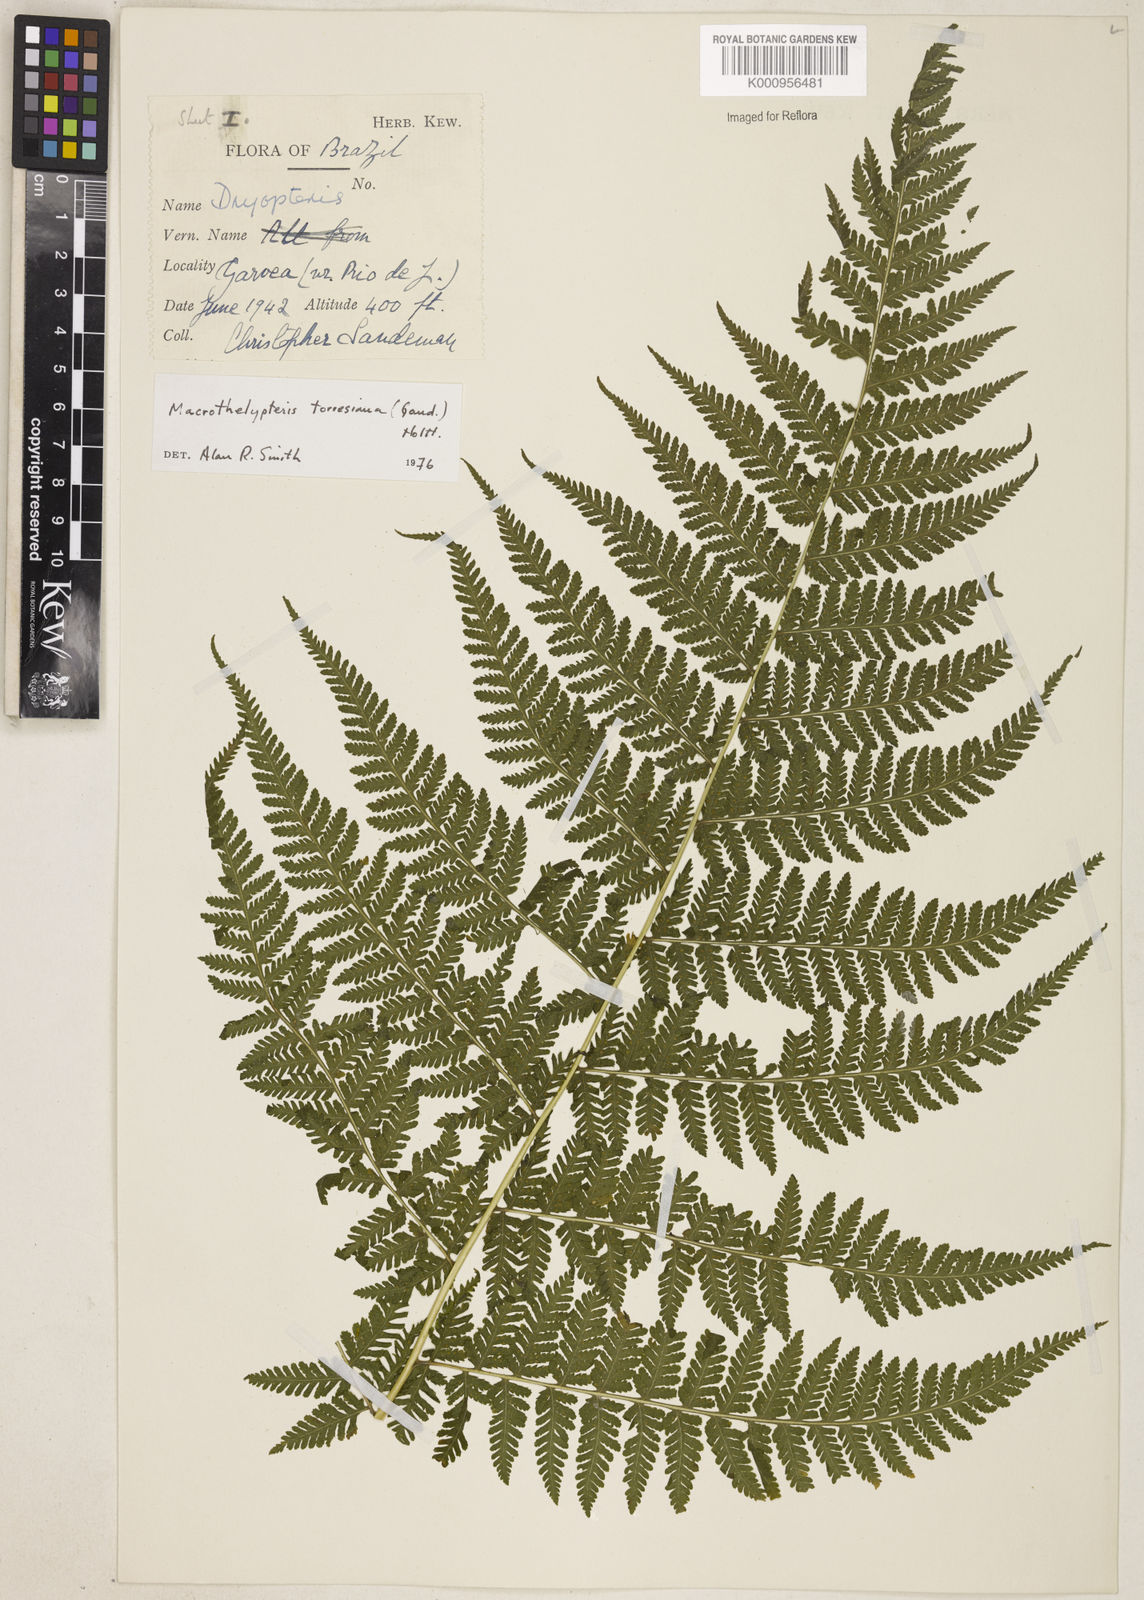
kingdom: Plantae
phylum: Tracheophyta
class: Polypodiopsida
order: Polypodiales
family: Thelypteridaceae
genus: Macrothelypteris
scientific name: Macrothelypteris torresiana
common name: Swordfern
